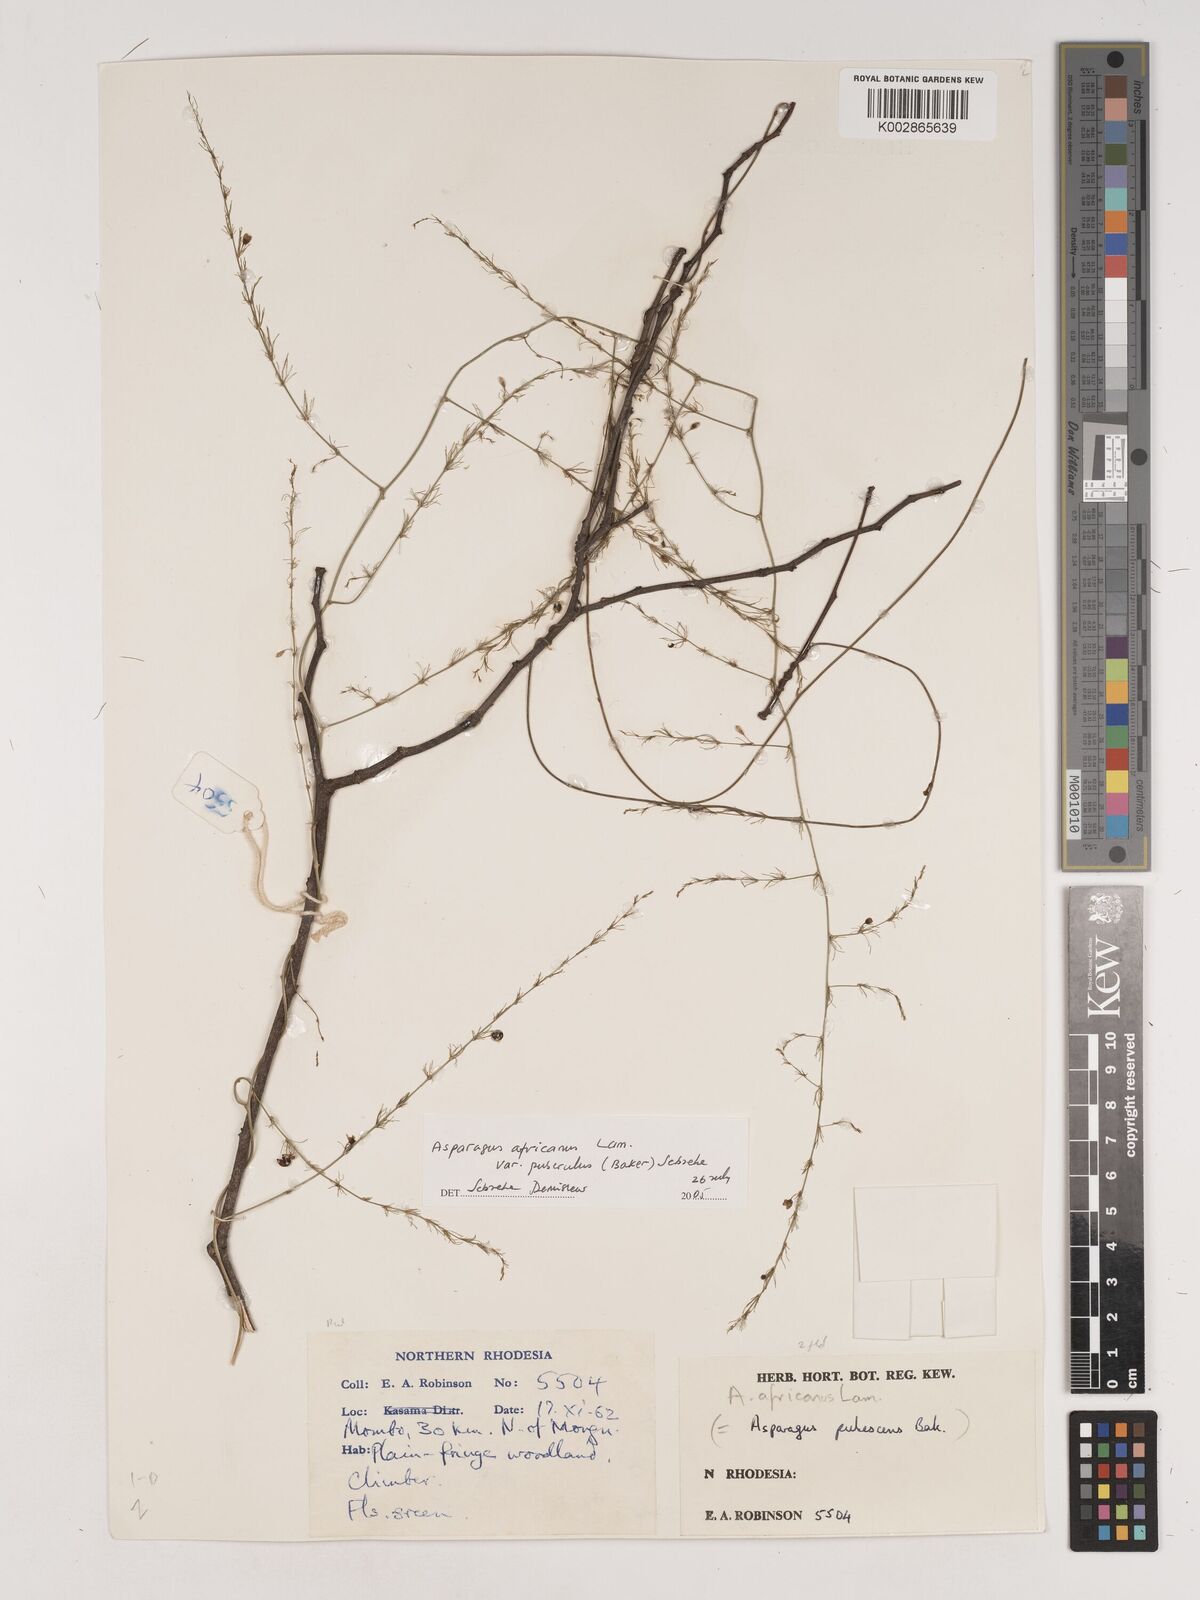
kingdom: Plantae
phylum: Tracheophyta
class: Liliopsida
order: Asparagales
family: Asparagaceae
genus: Asparagus
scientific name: Asparagus africanus
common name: Asparagus-fern
